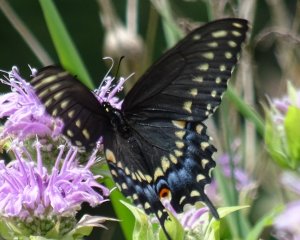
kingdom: Animalia
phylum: Arthropoda
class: Insecta
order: Lepidoptera
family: Papilionidae
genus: Papilio
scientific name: Papilio polyxenes
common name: Black Swallowtail
